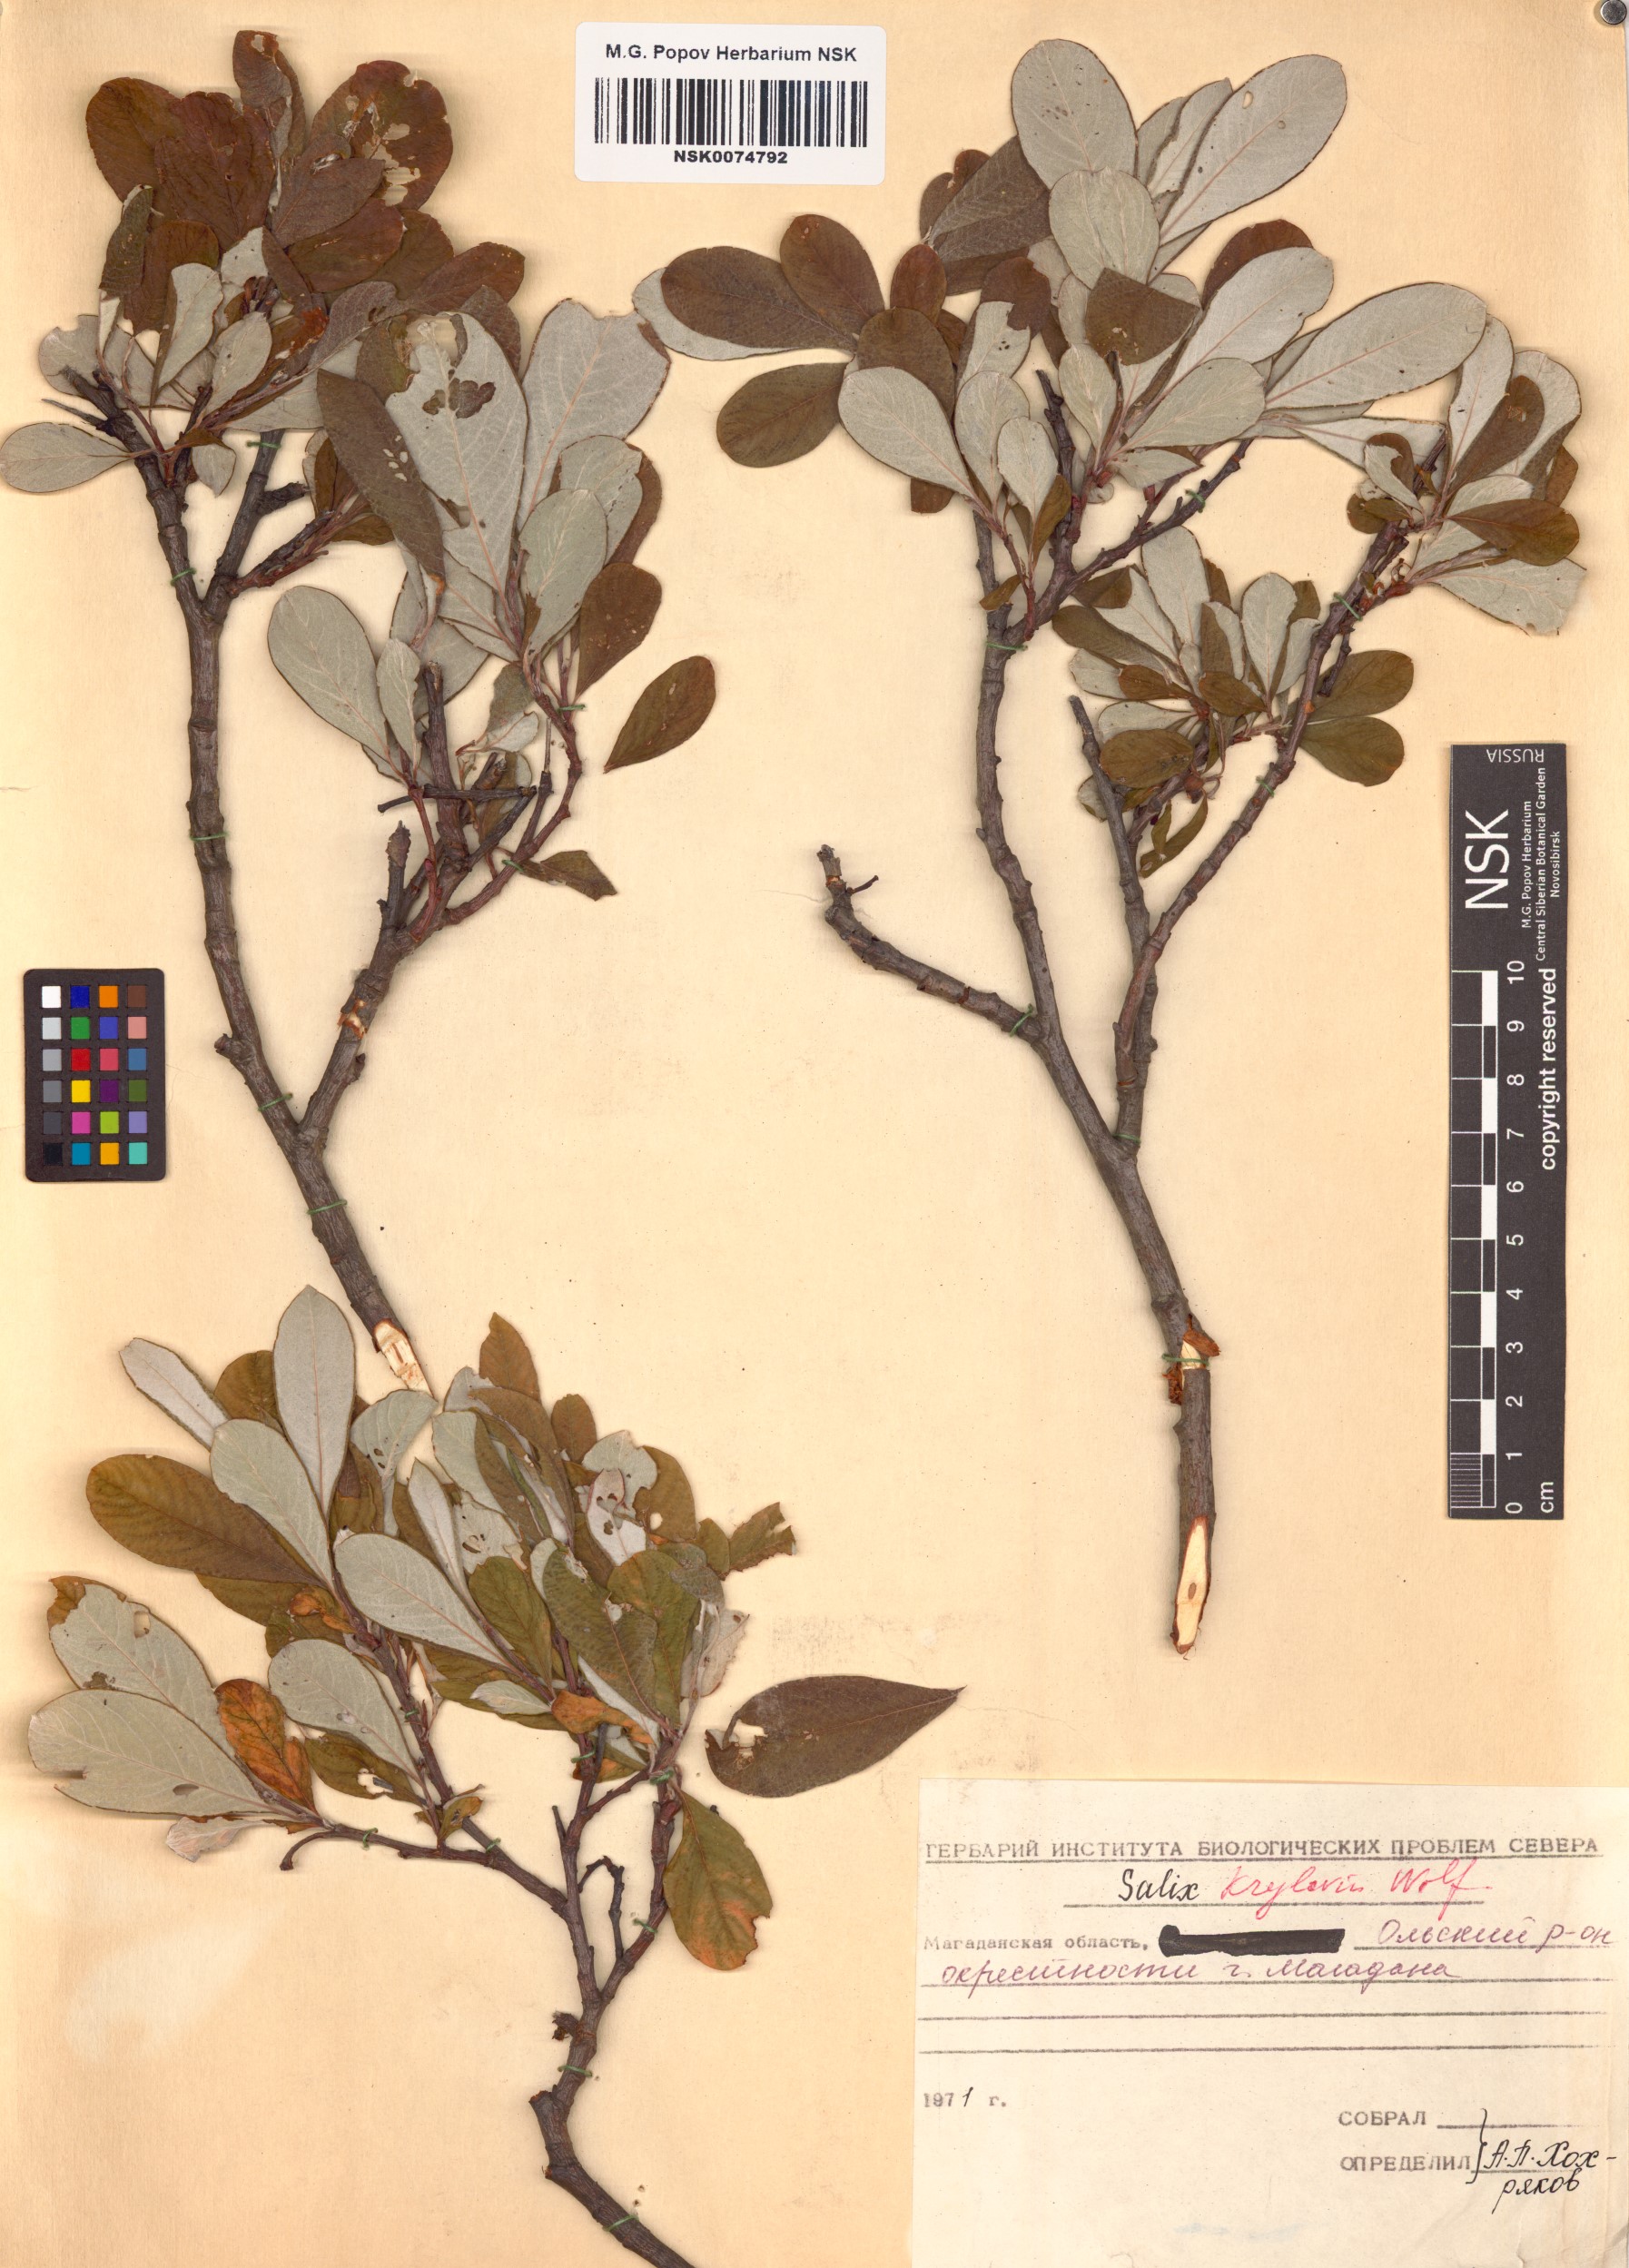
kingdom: Plantae
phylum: Tracheophyta
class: Magnoliopsida
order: Malpighiales
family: Salicaceae
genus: Salix
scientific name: Salix krylovii
